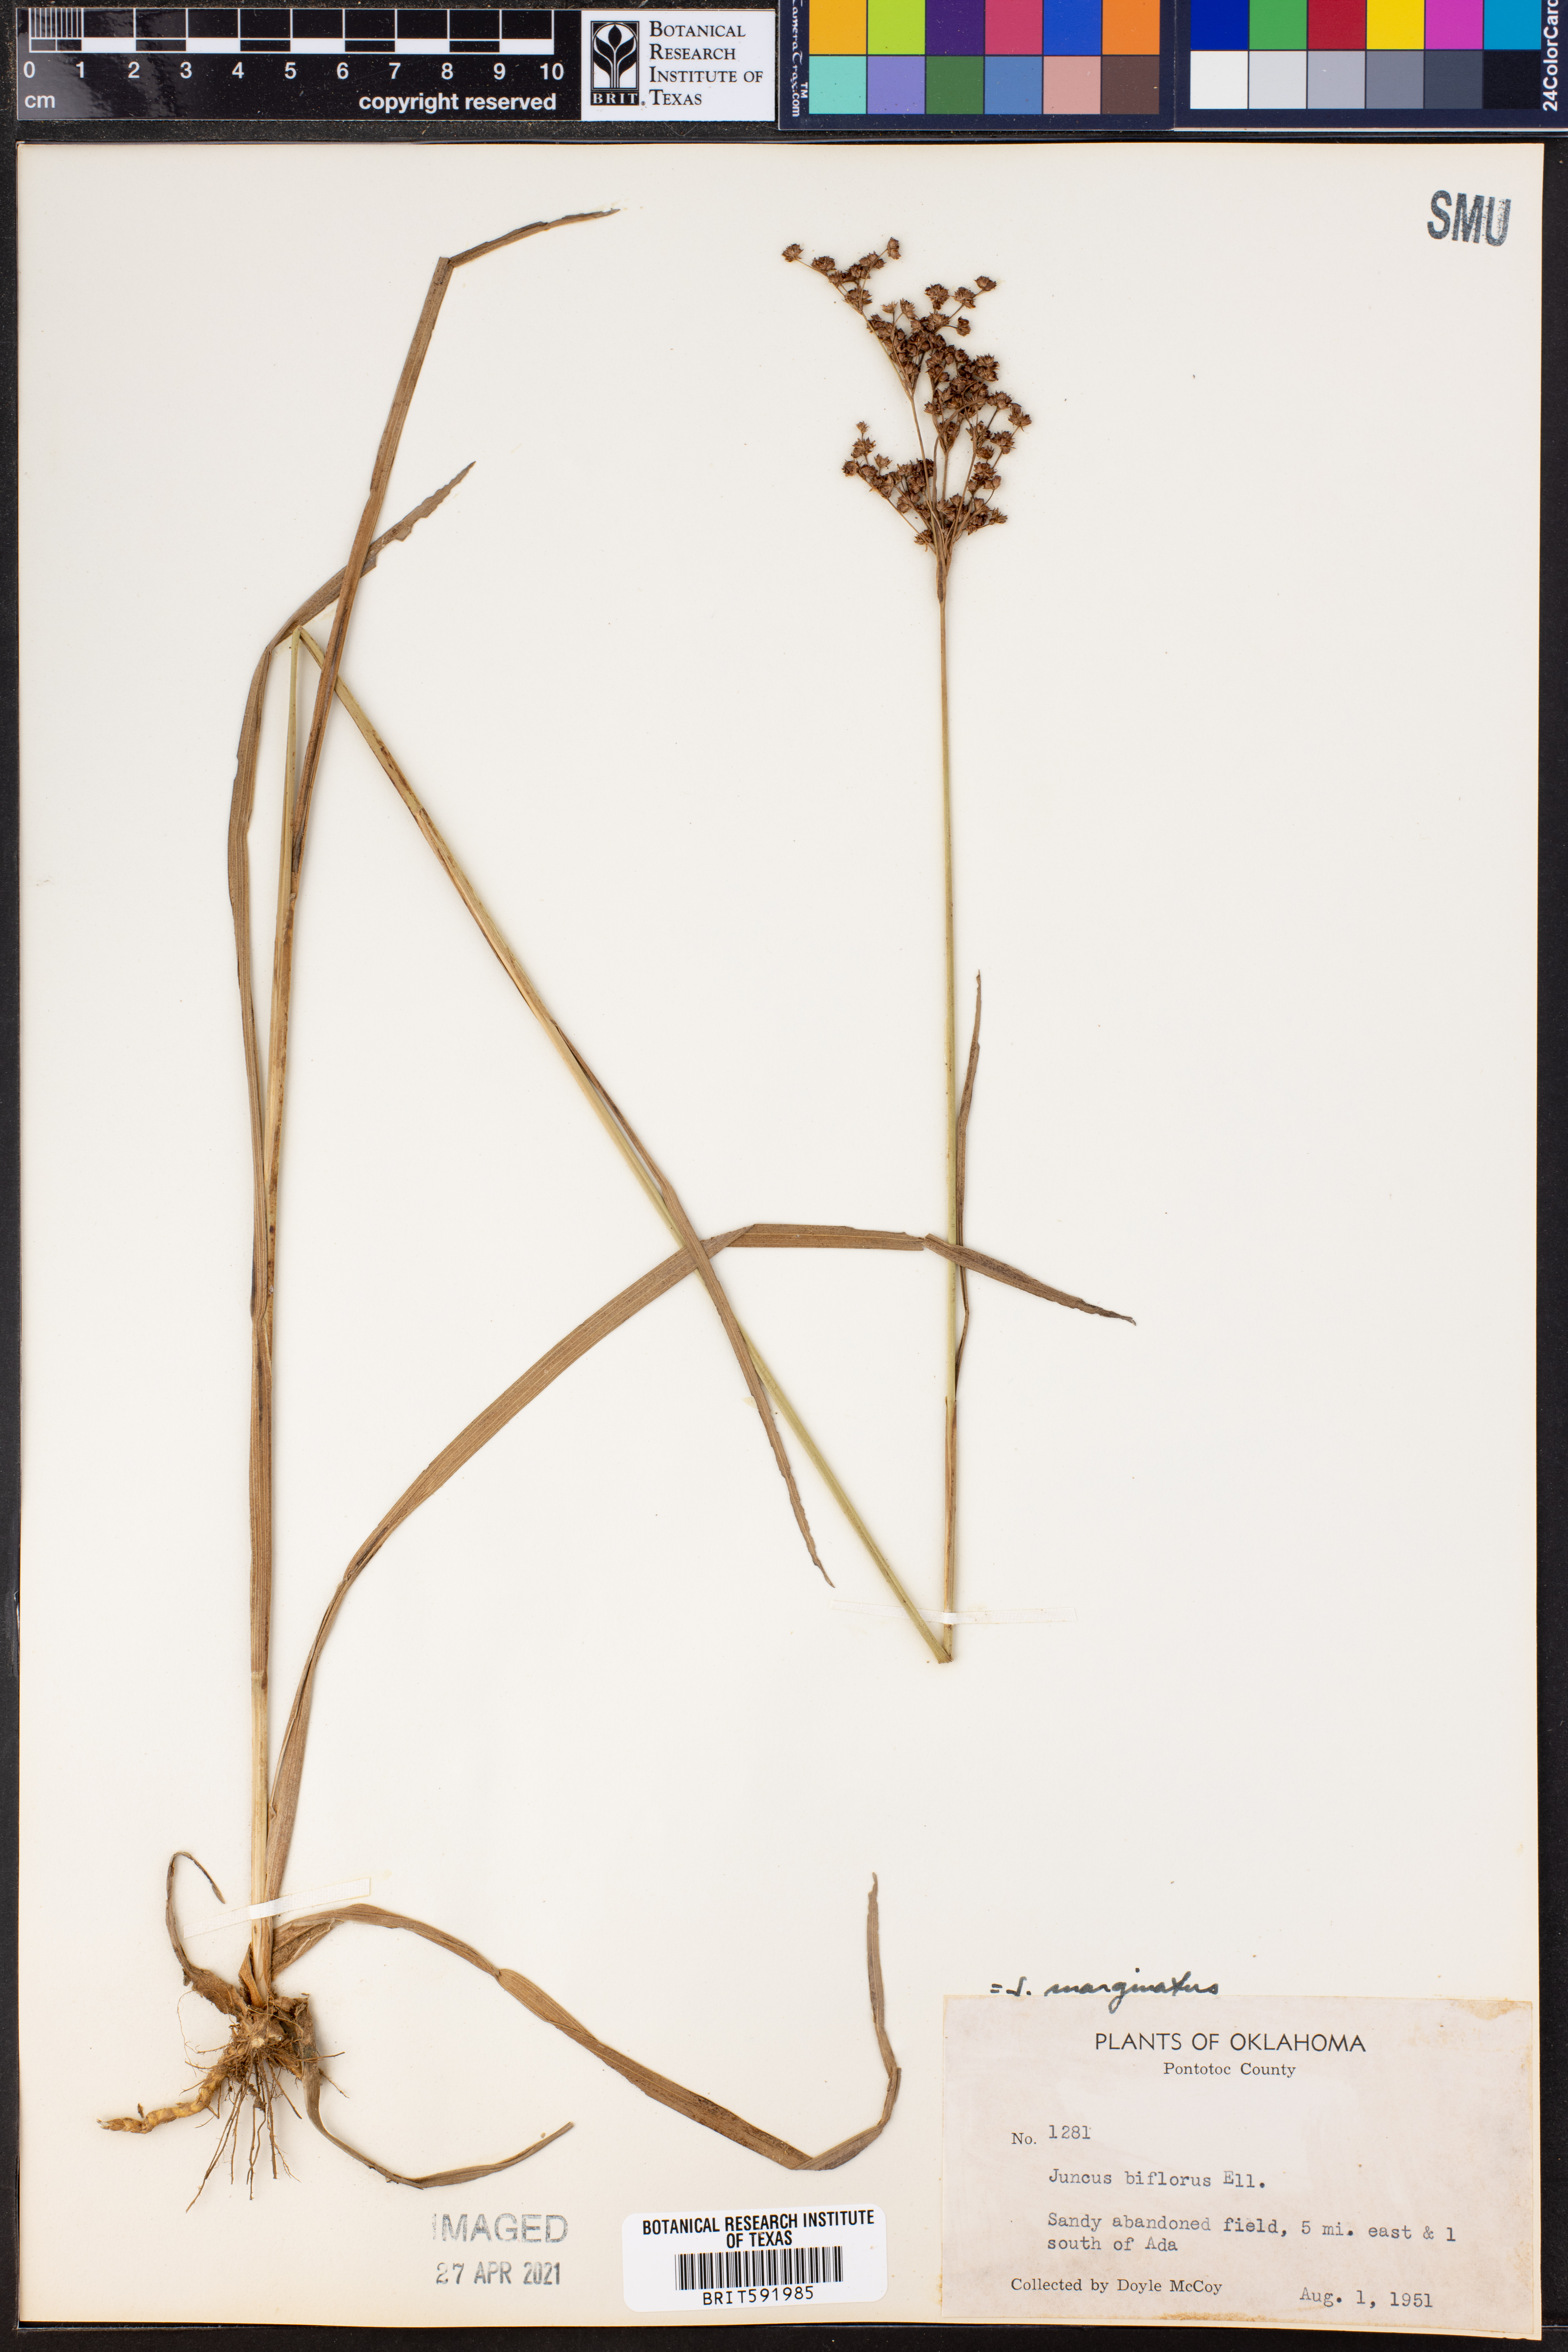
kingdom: Plantae
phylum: Tracheophyta
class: Liliopsida
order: Poales
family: Juncaceae
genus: Juncus
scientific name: Juncus marginatus
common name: Grass-leaf rush
